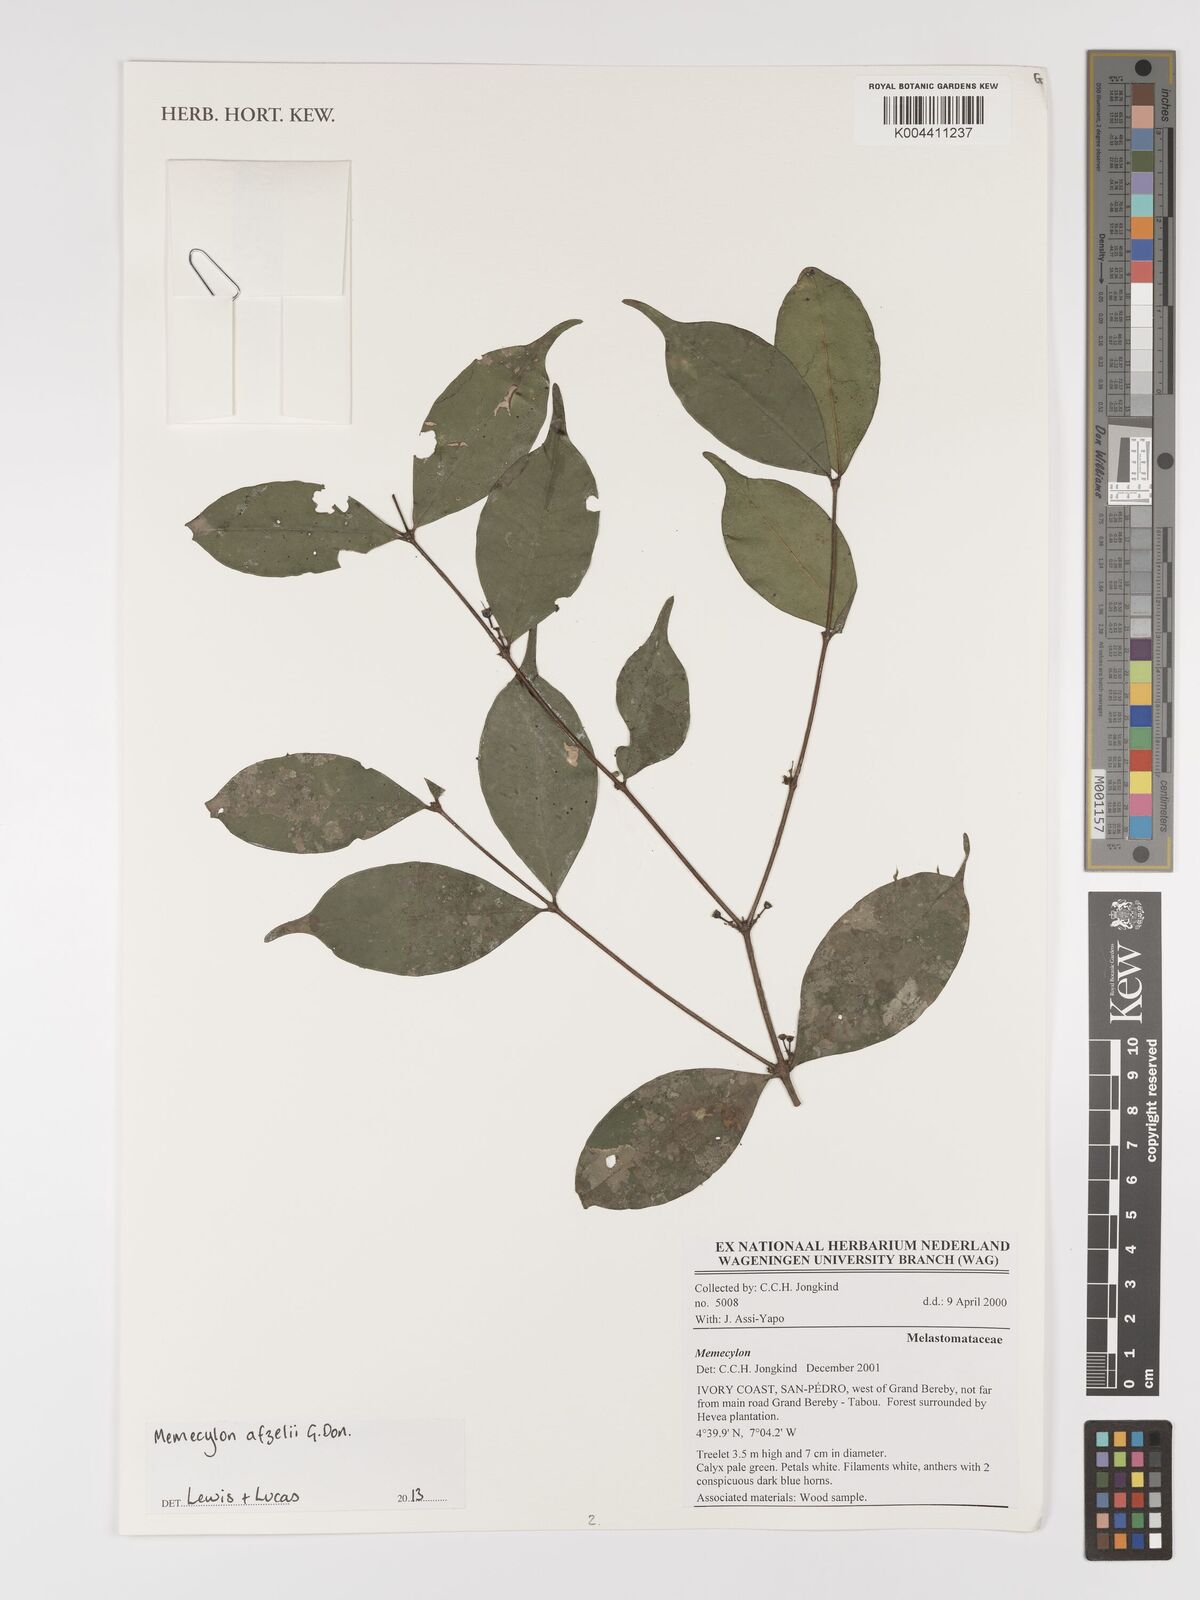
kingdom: Plantae
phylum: Tracheophyta
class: Magnoliopsida
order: Myrtales
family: Melastomataceae
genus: Memecylon
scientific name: Memecylon afzelii
